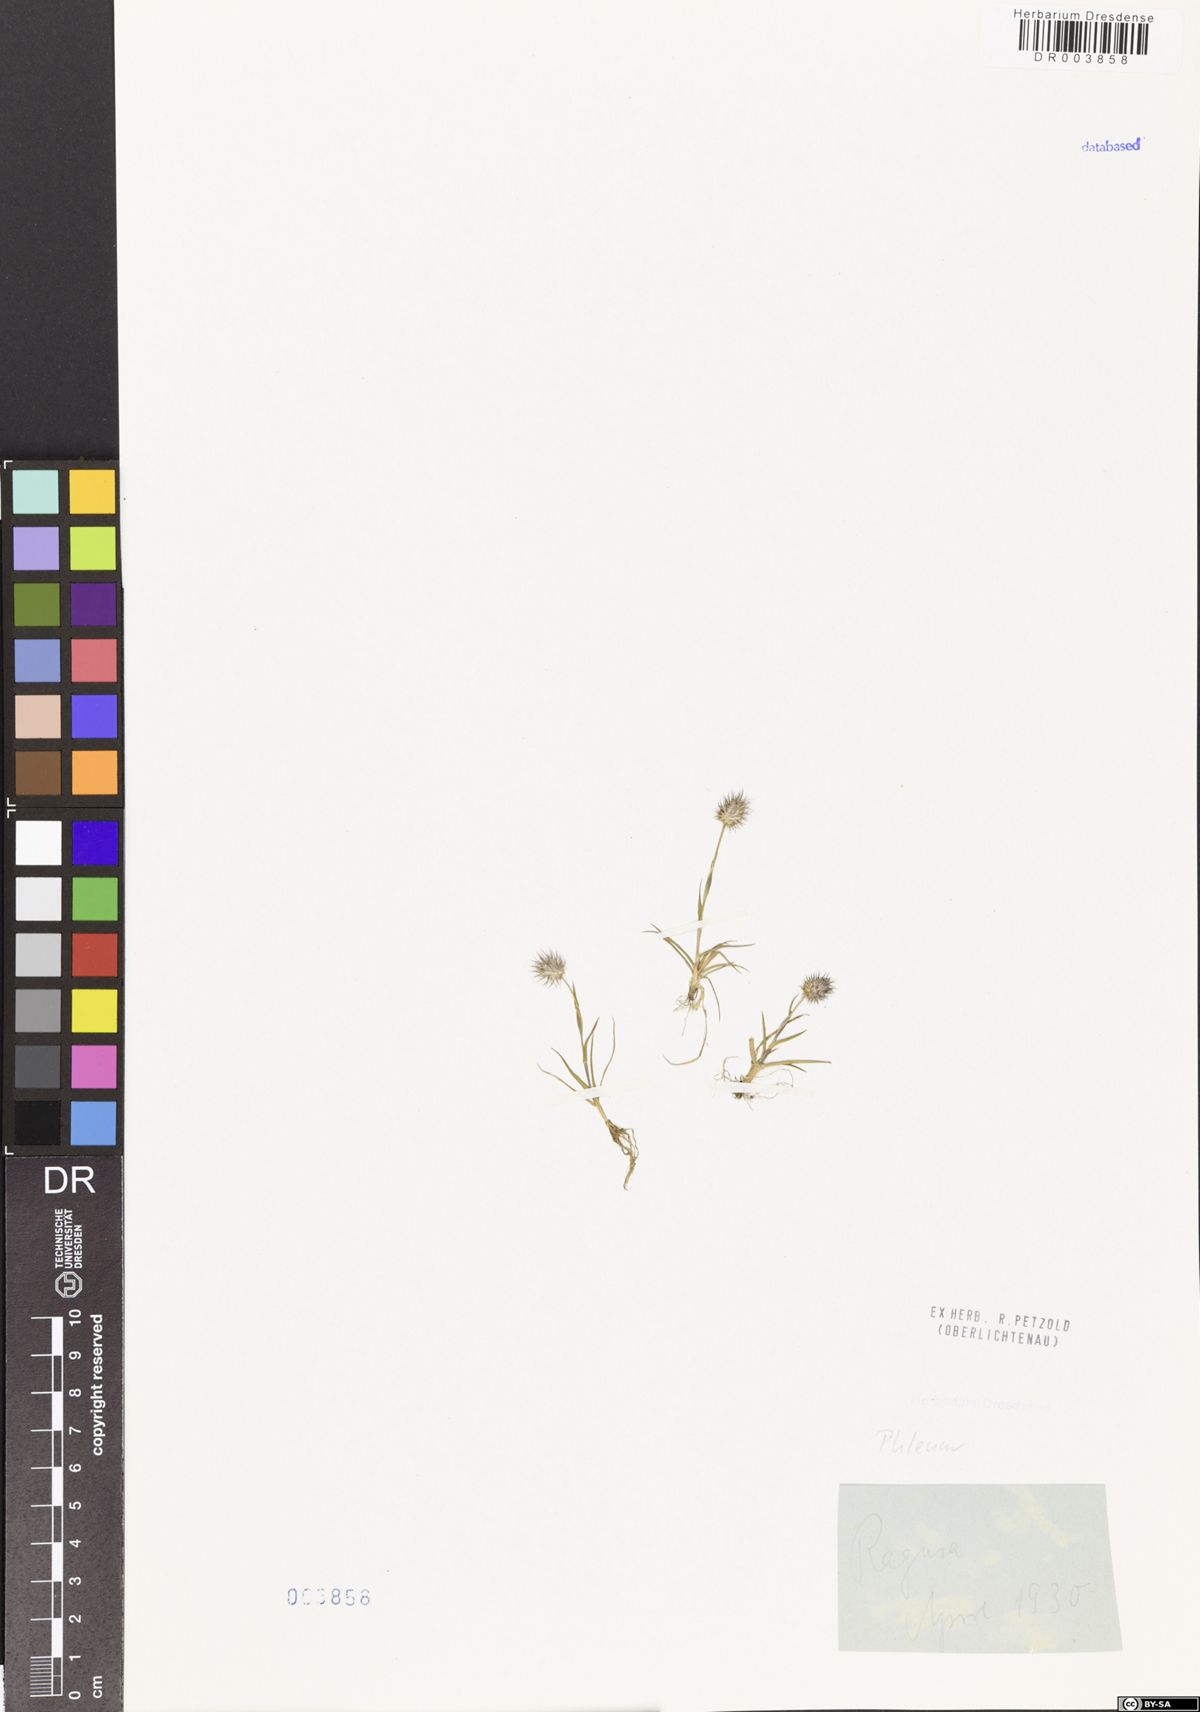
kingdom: Plantae
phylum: Tracheophyta
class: Liliopsida
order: Poales
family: Poaceae
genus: Phleum
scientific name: Phleum
